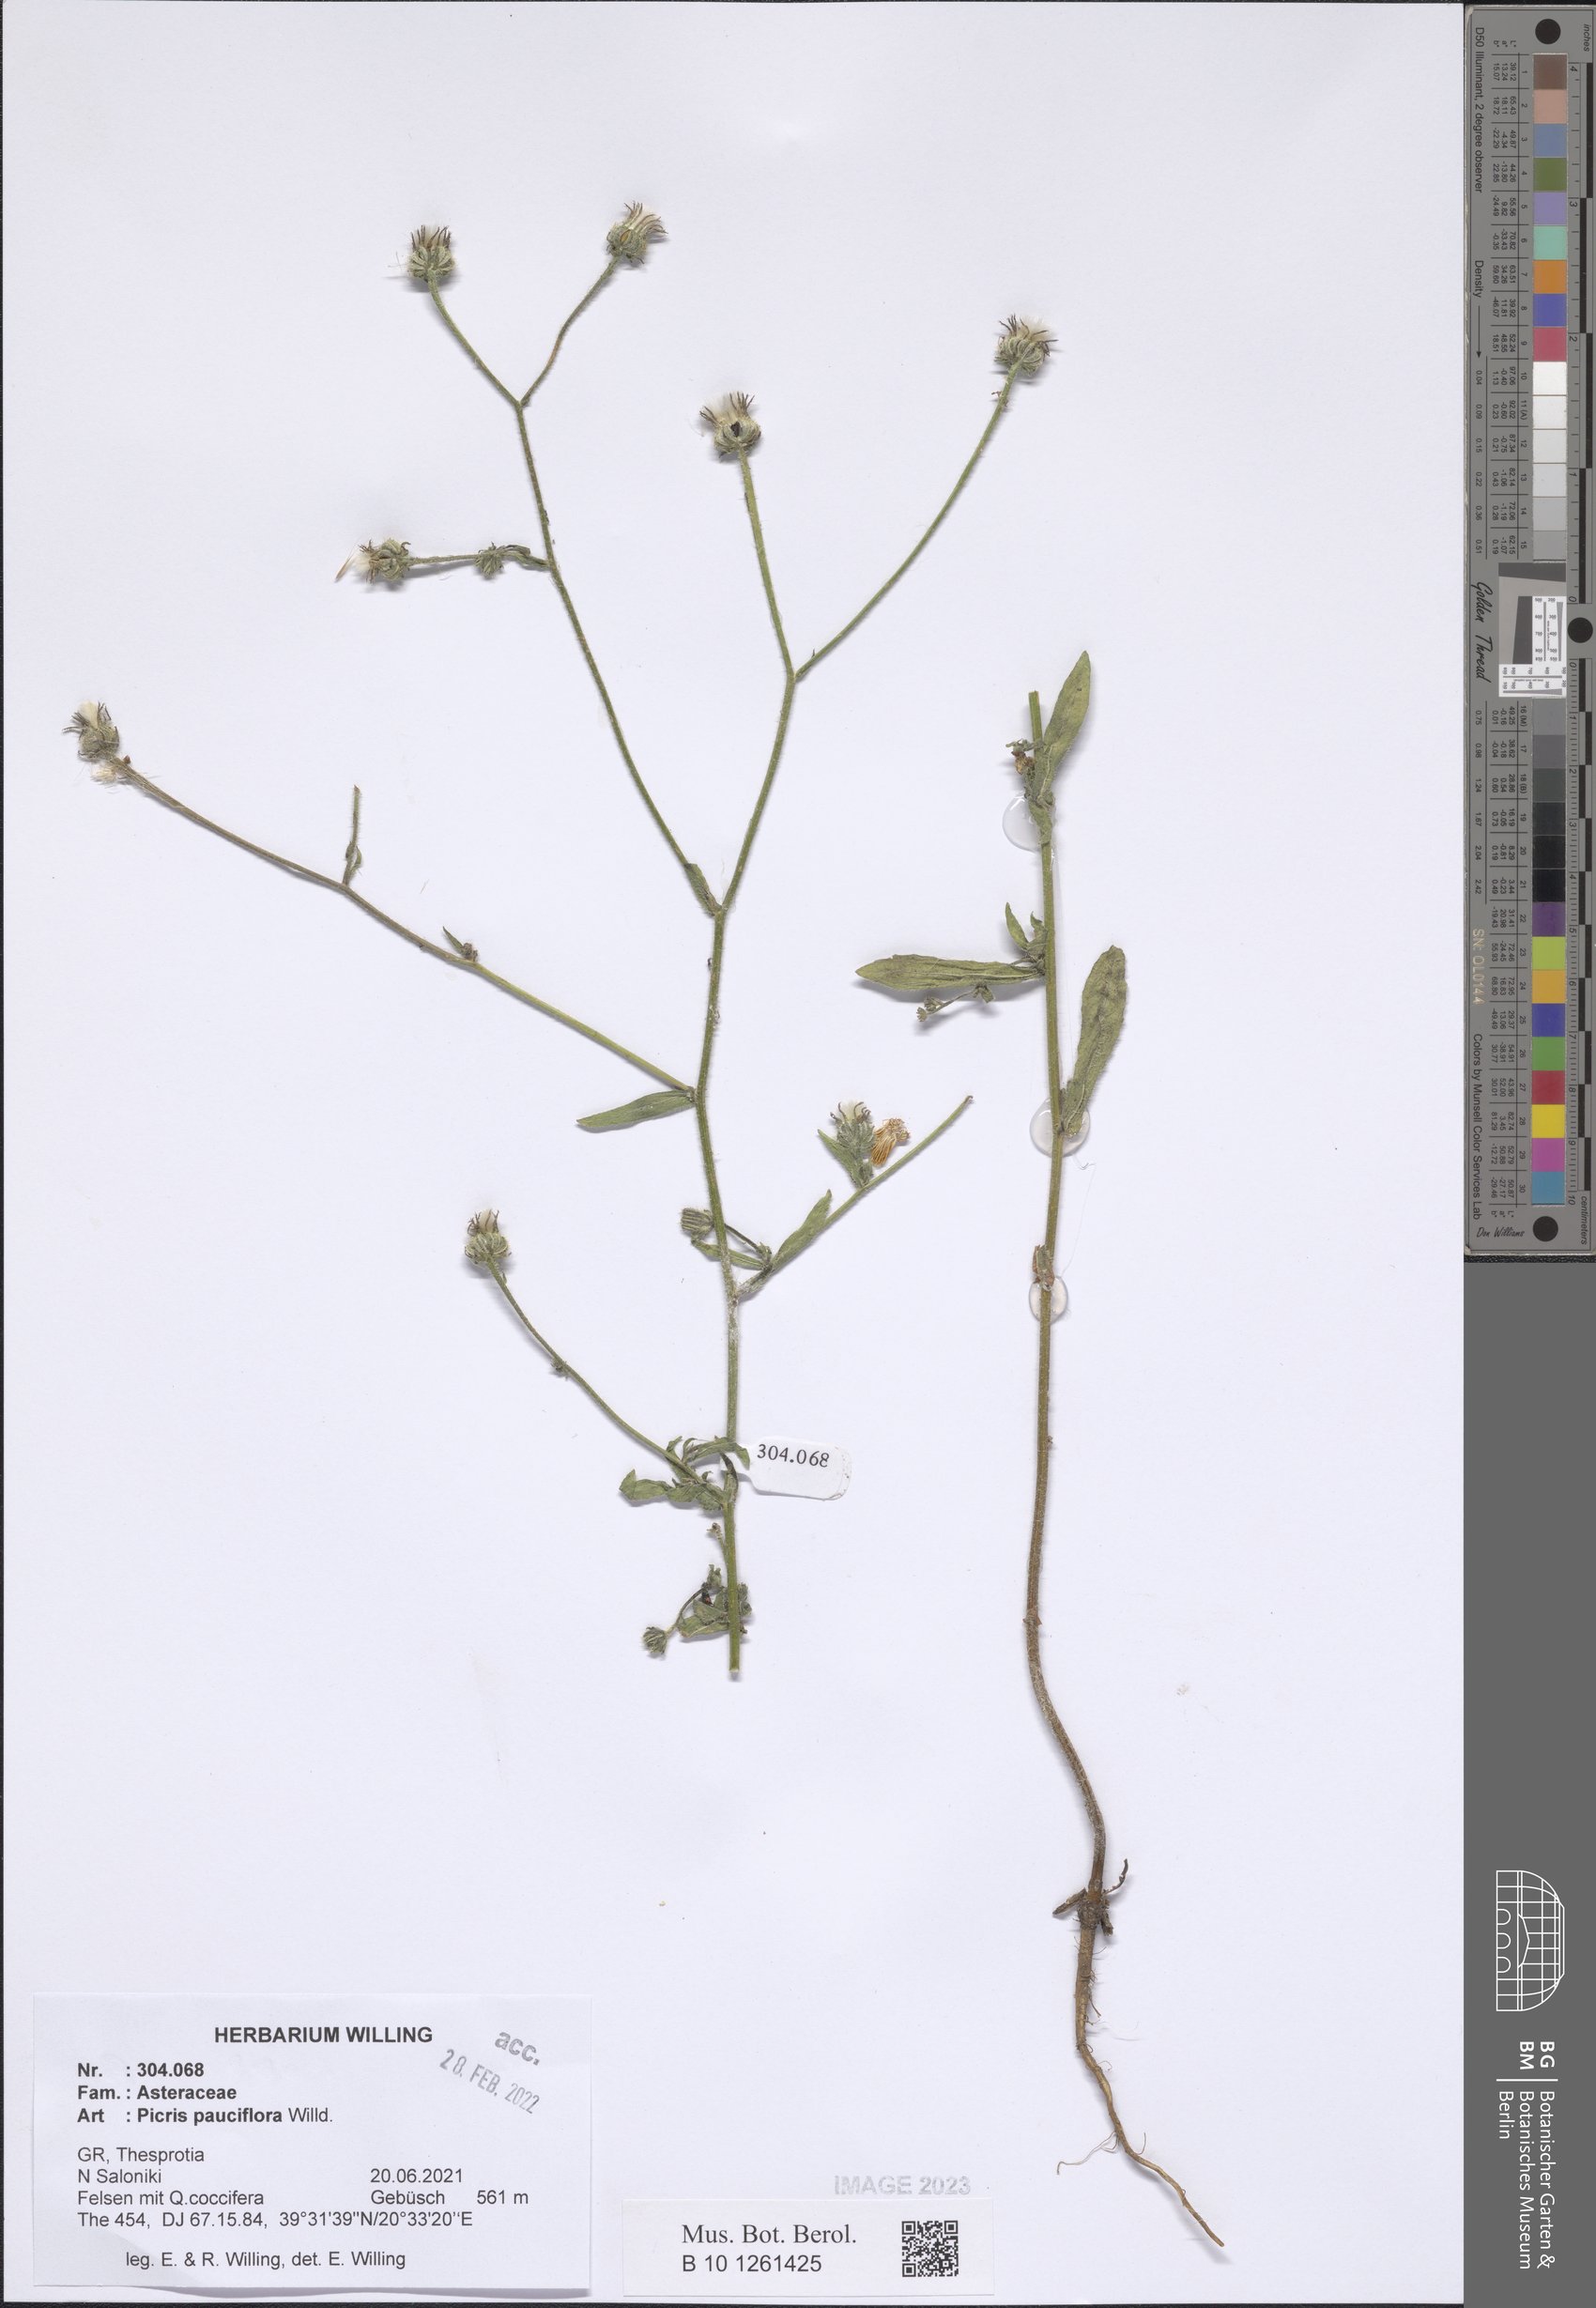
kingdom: Plantae
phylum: Tracheophyta
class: Magnoliopsida
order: Asterales
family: Asteraceae
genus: Picris
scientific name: Picris pauciflora
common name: Smallflower oxtongue
